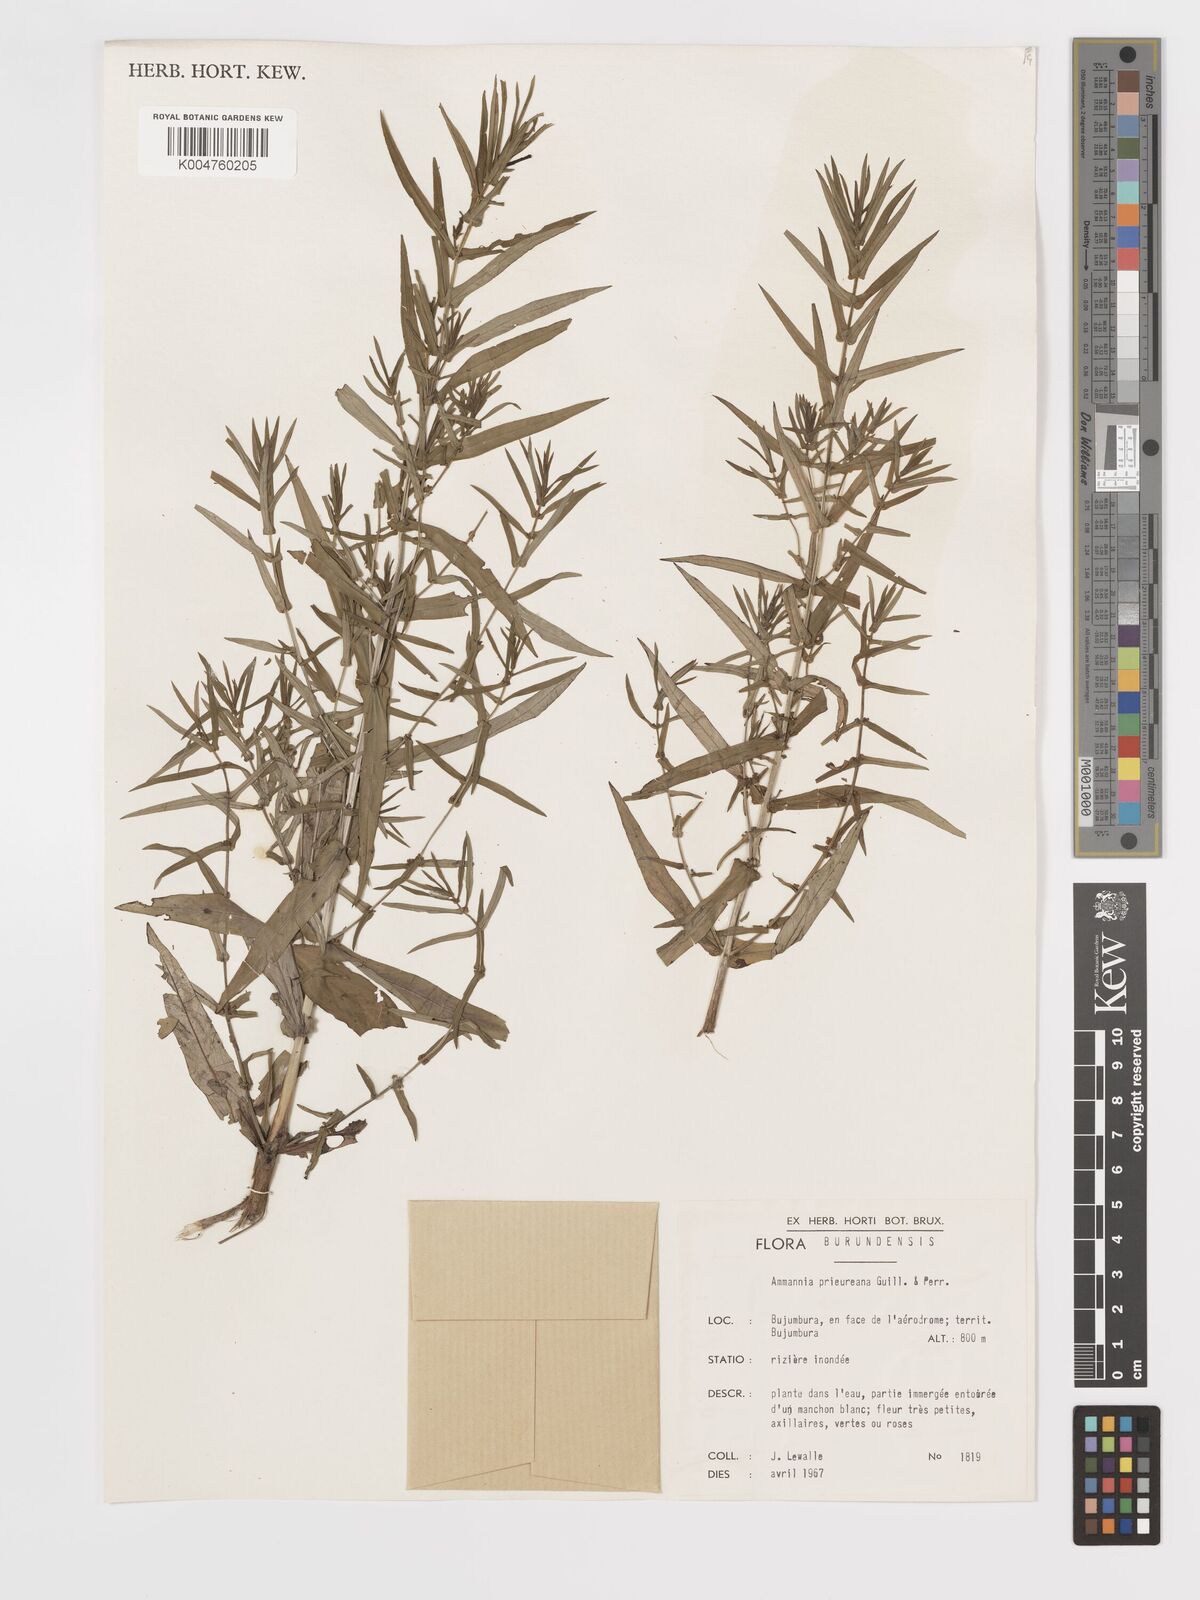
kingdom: Plantae
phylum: Tracheophyta
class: Magnoliopsida
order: Myrtales
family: Lythraceae
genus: Ammannia
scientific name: Ammannia prieuriana
